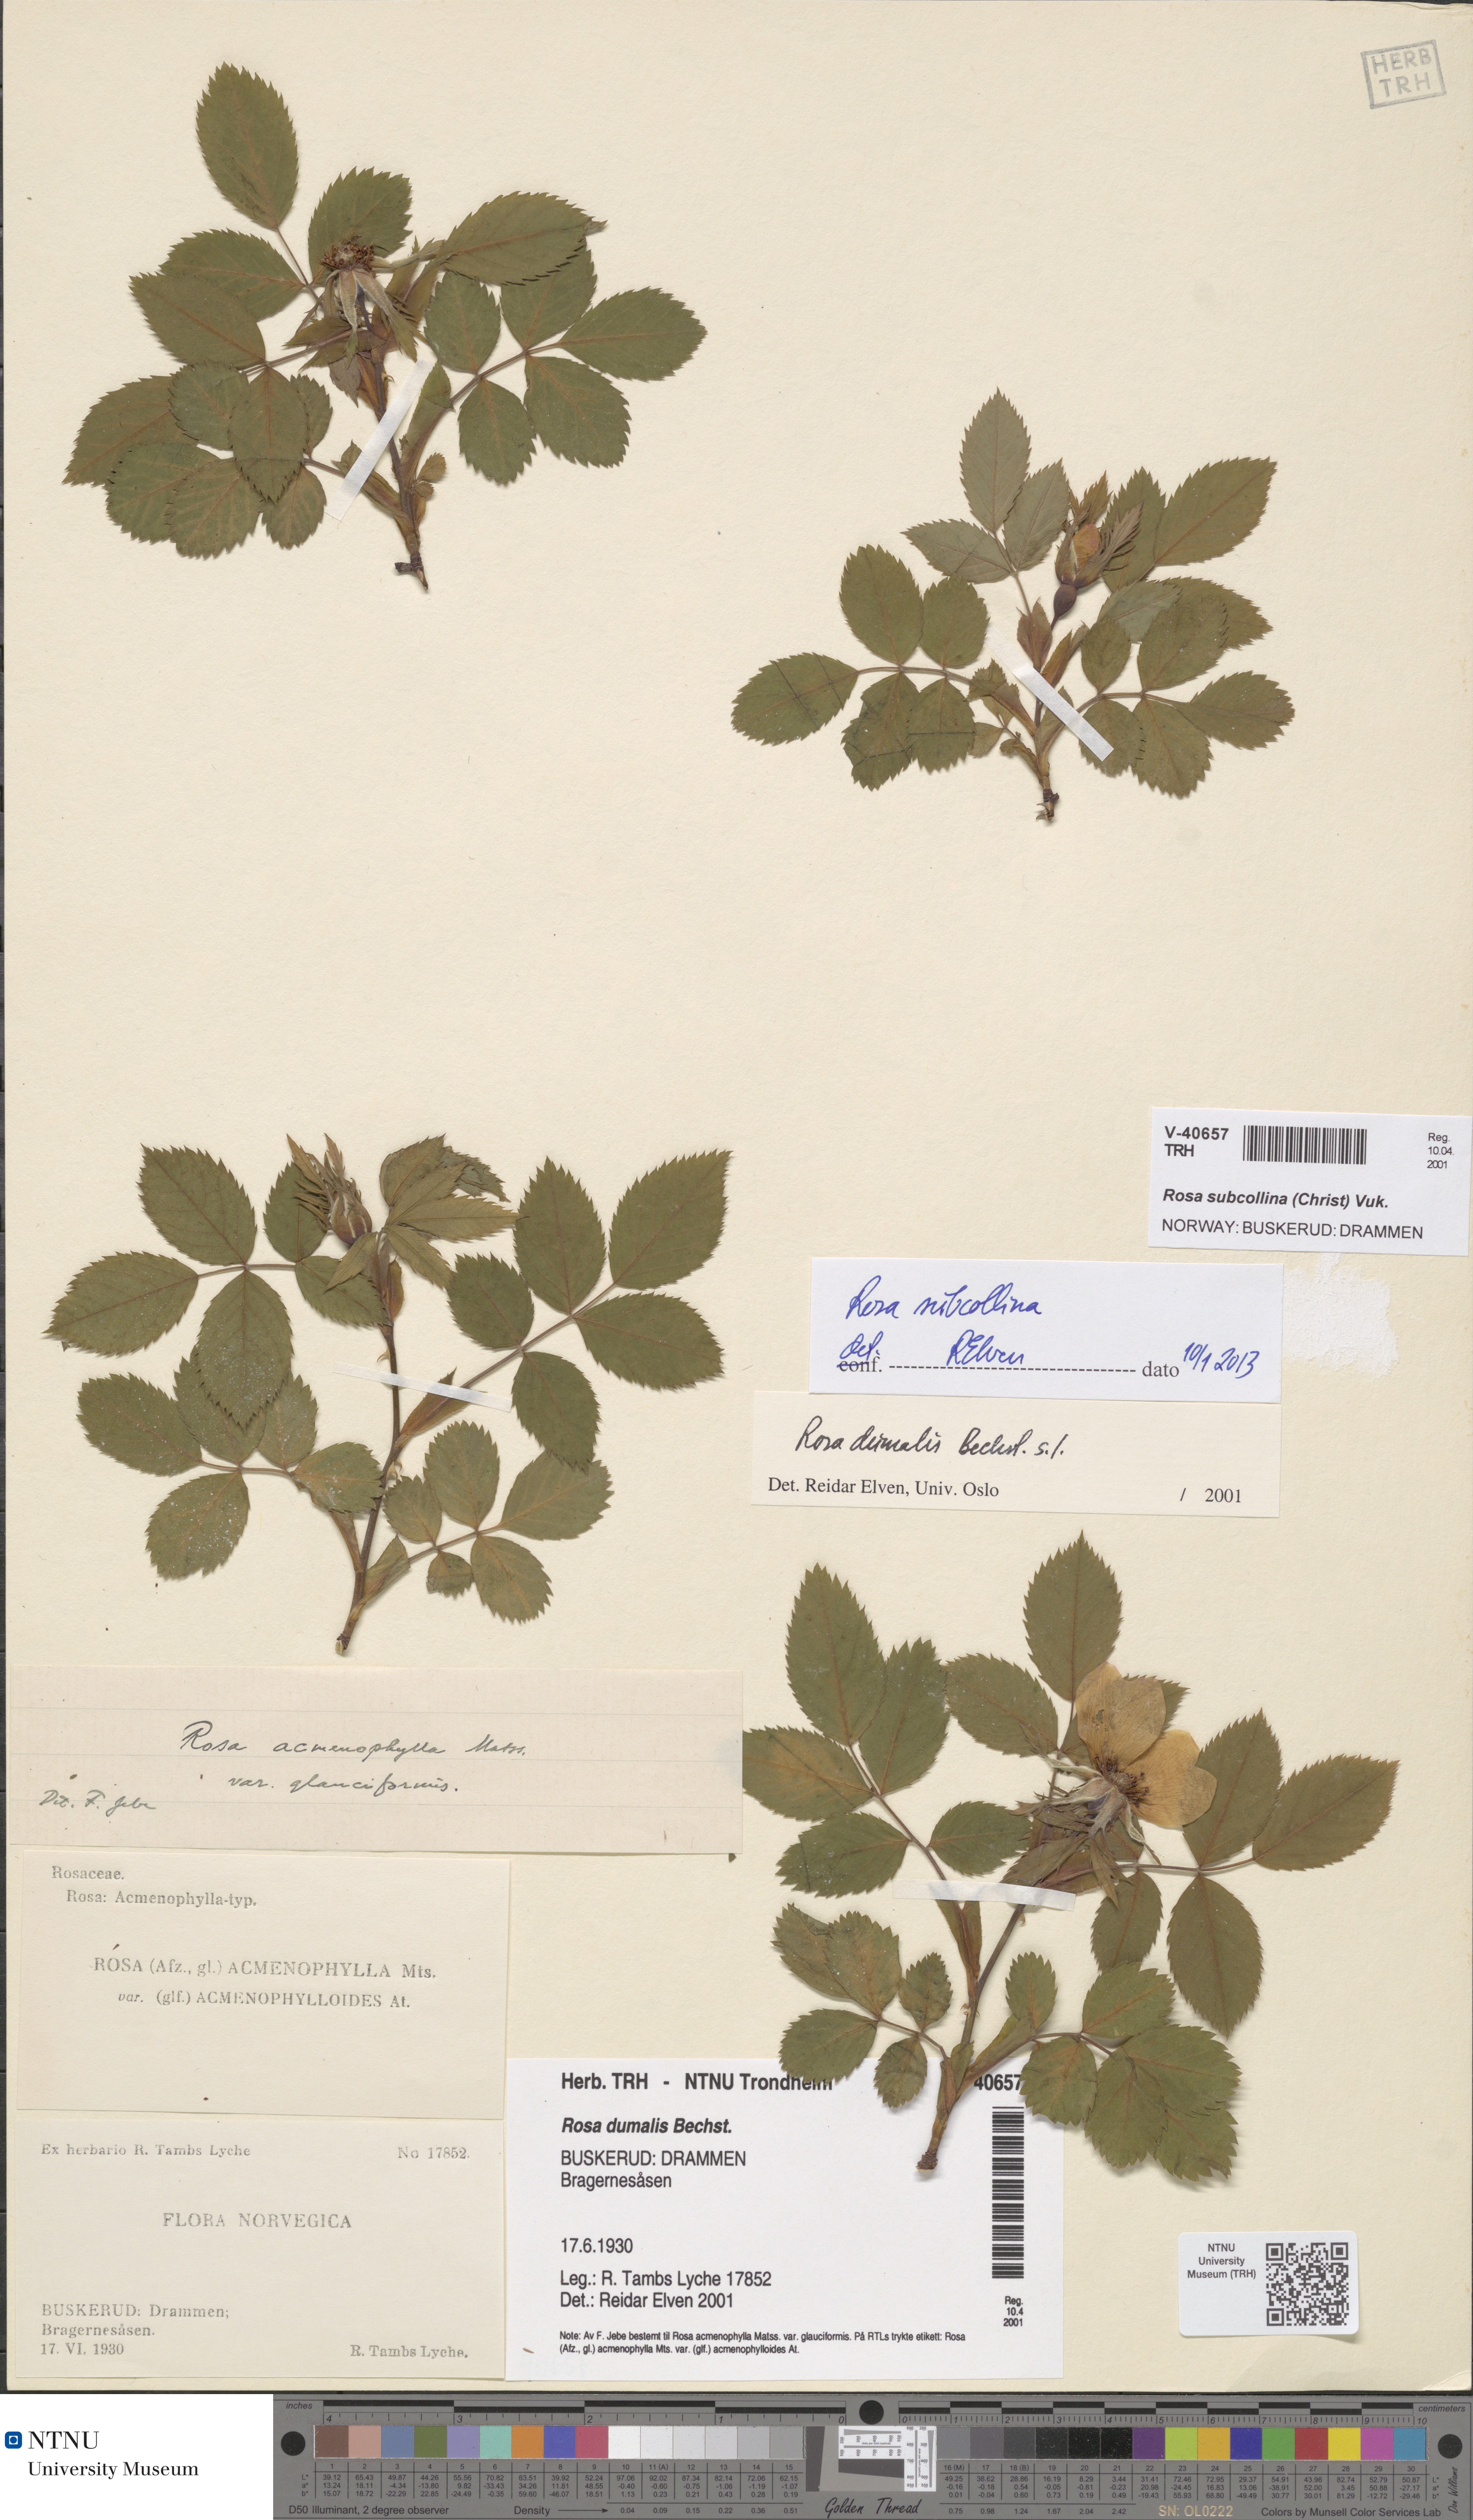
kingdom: Plantae
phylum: Tracheophyta
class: Magnoliopsida
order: Rosales
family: Rosaceae
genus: Rosa
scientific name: Rosa subcollina
